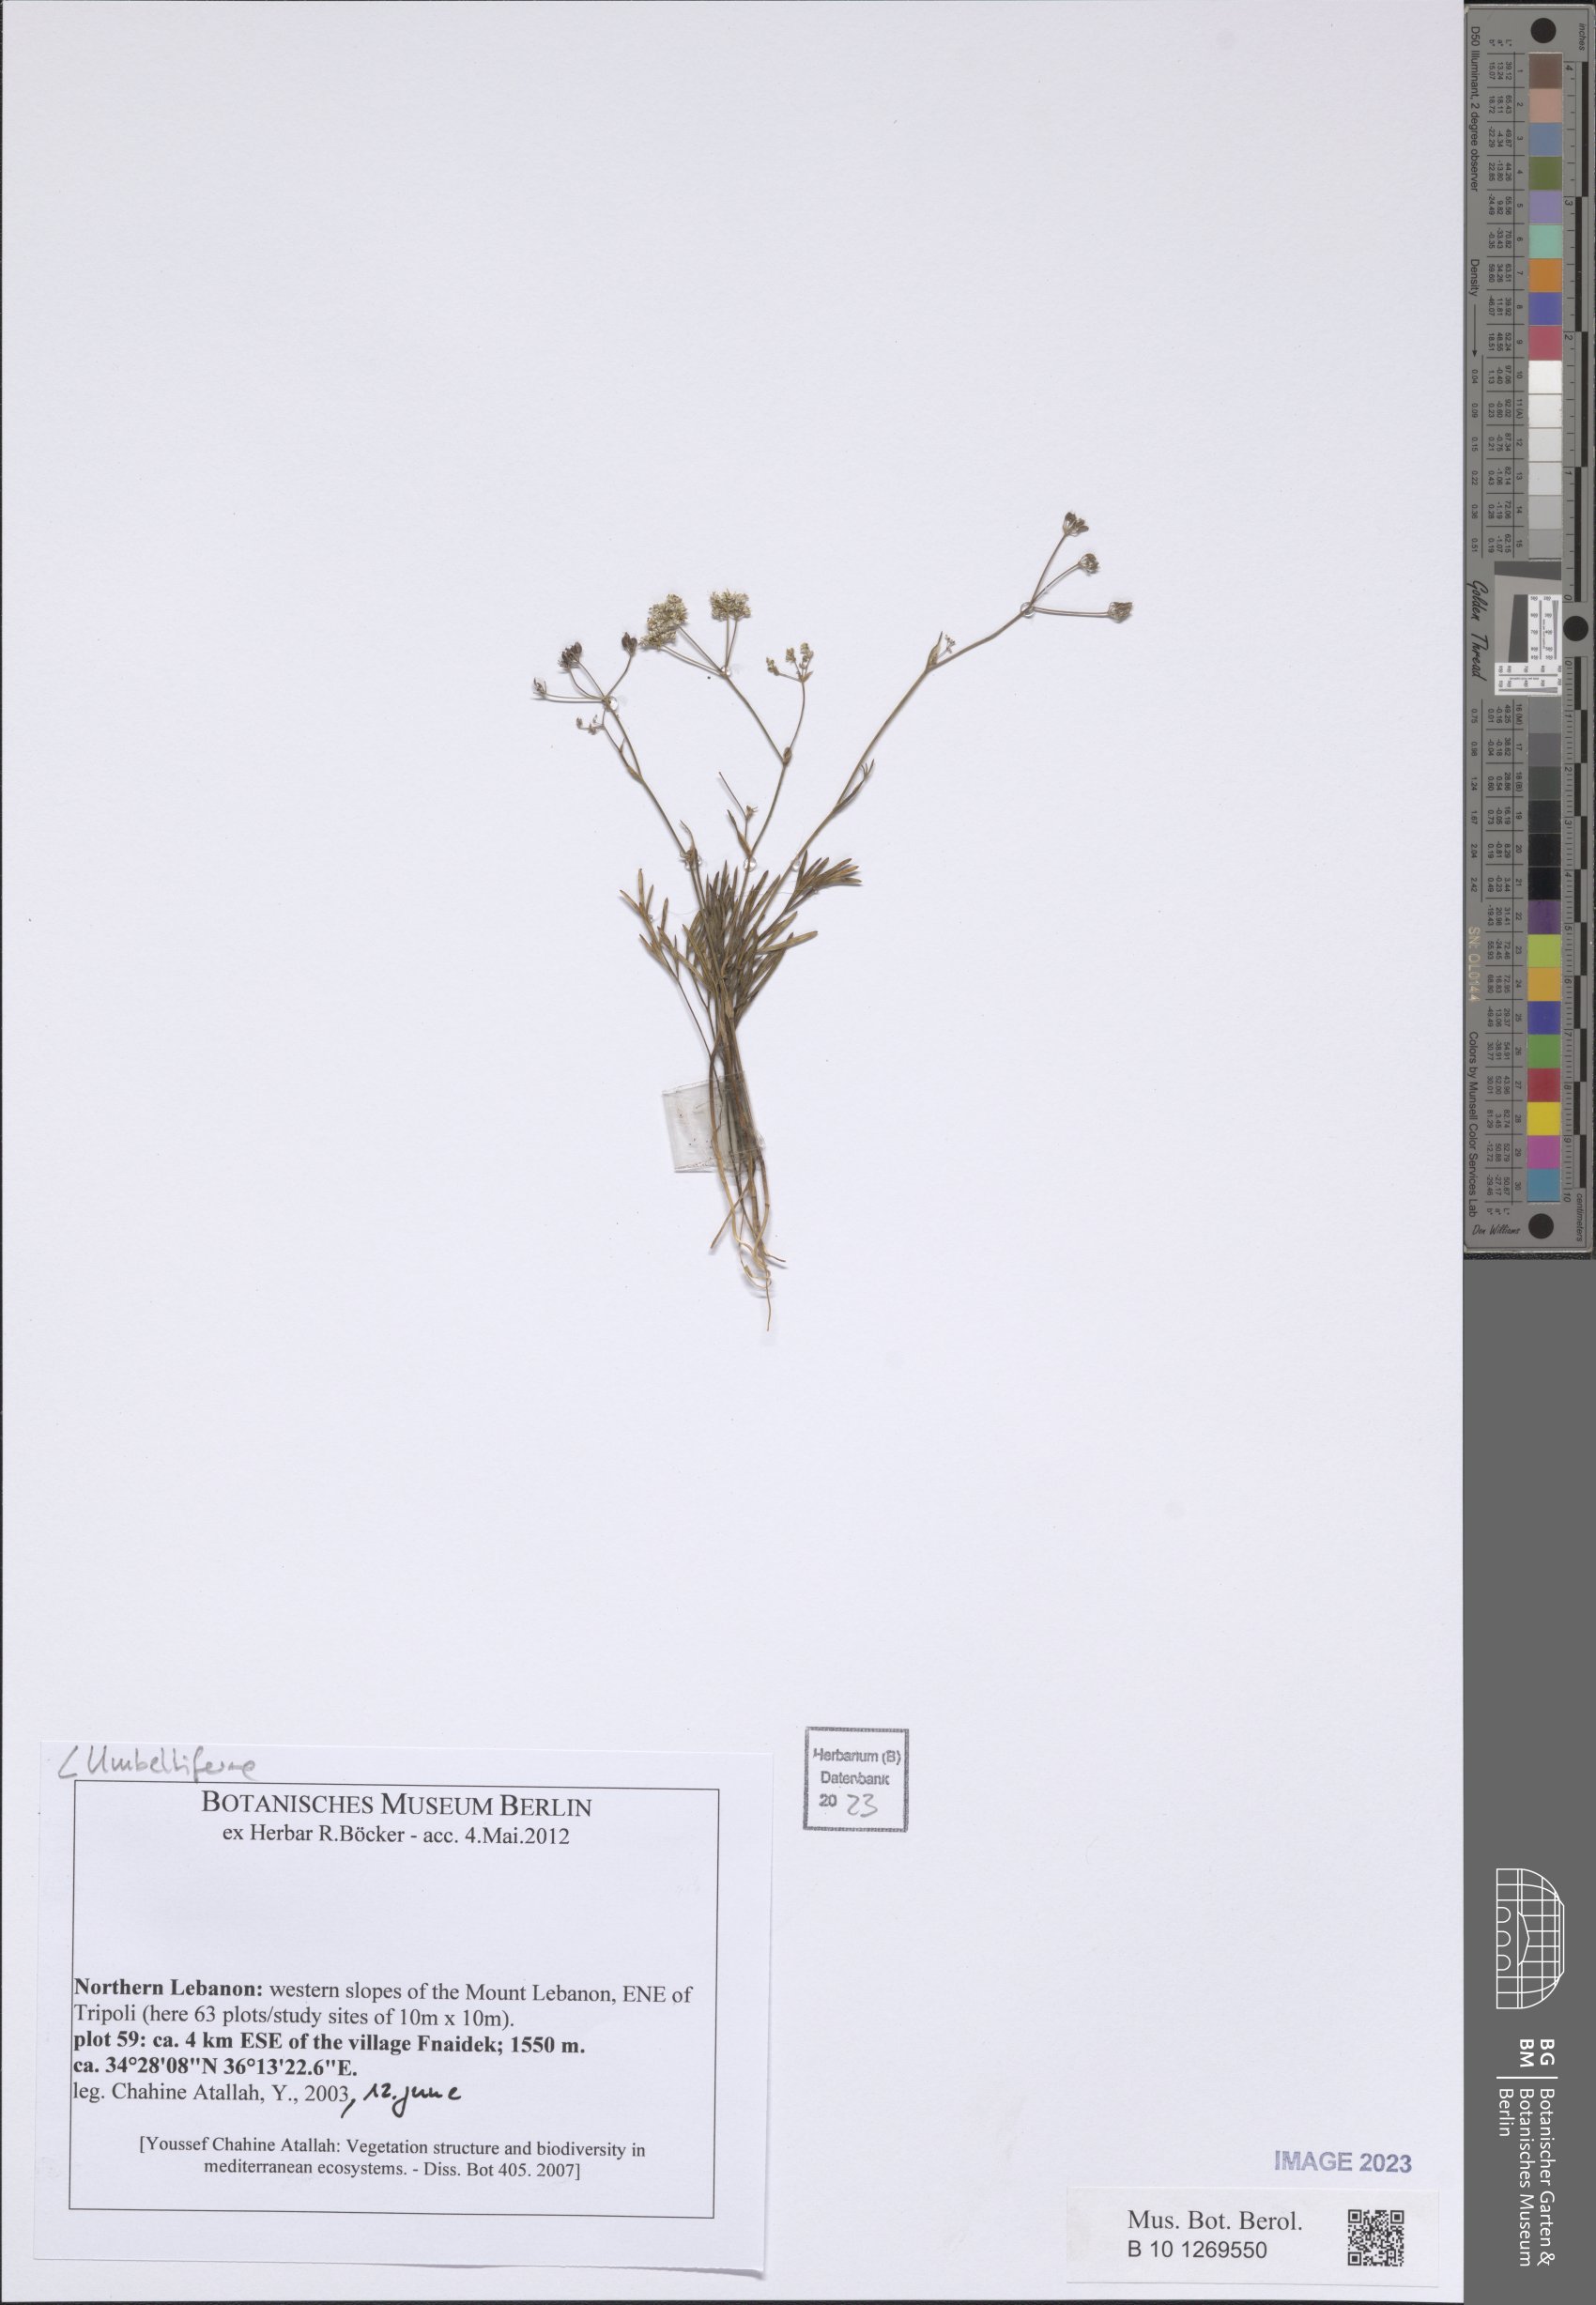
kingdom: Plantae
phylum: Tracheophyta
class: Magnoliopsida
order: Apiales
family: Apiaceae
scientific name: Apiaceae
